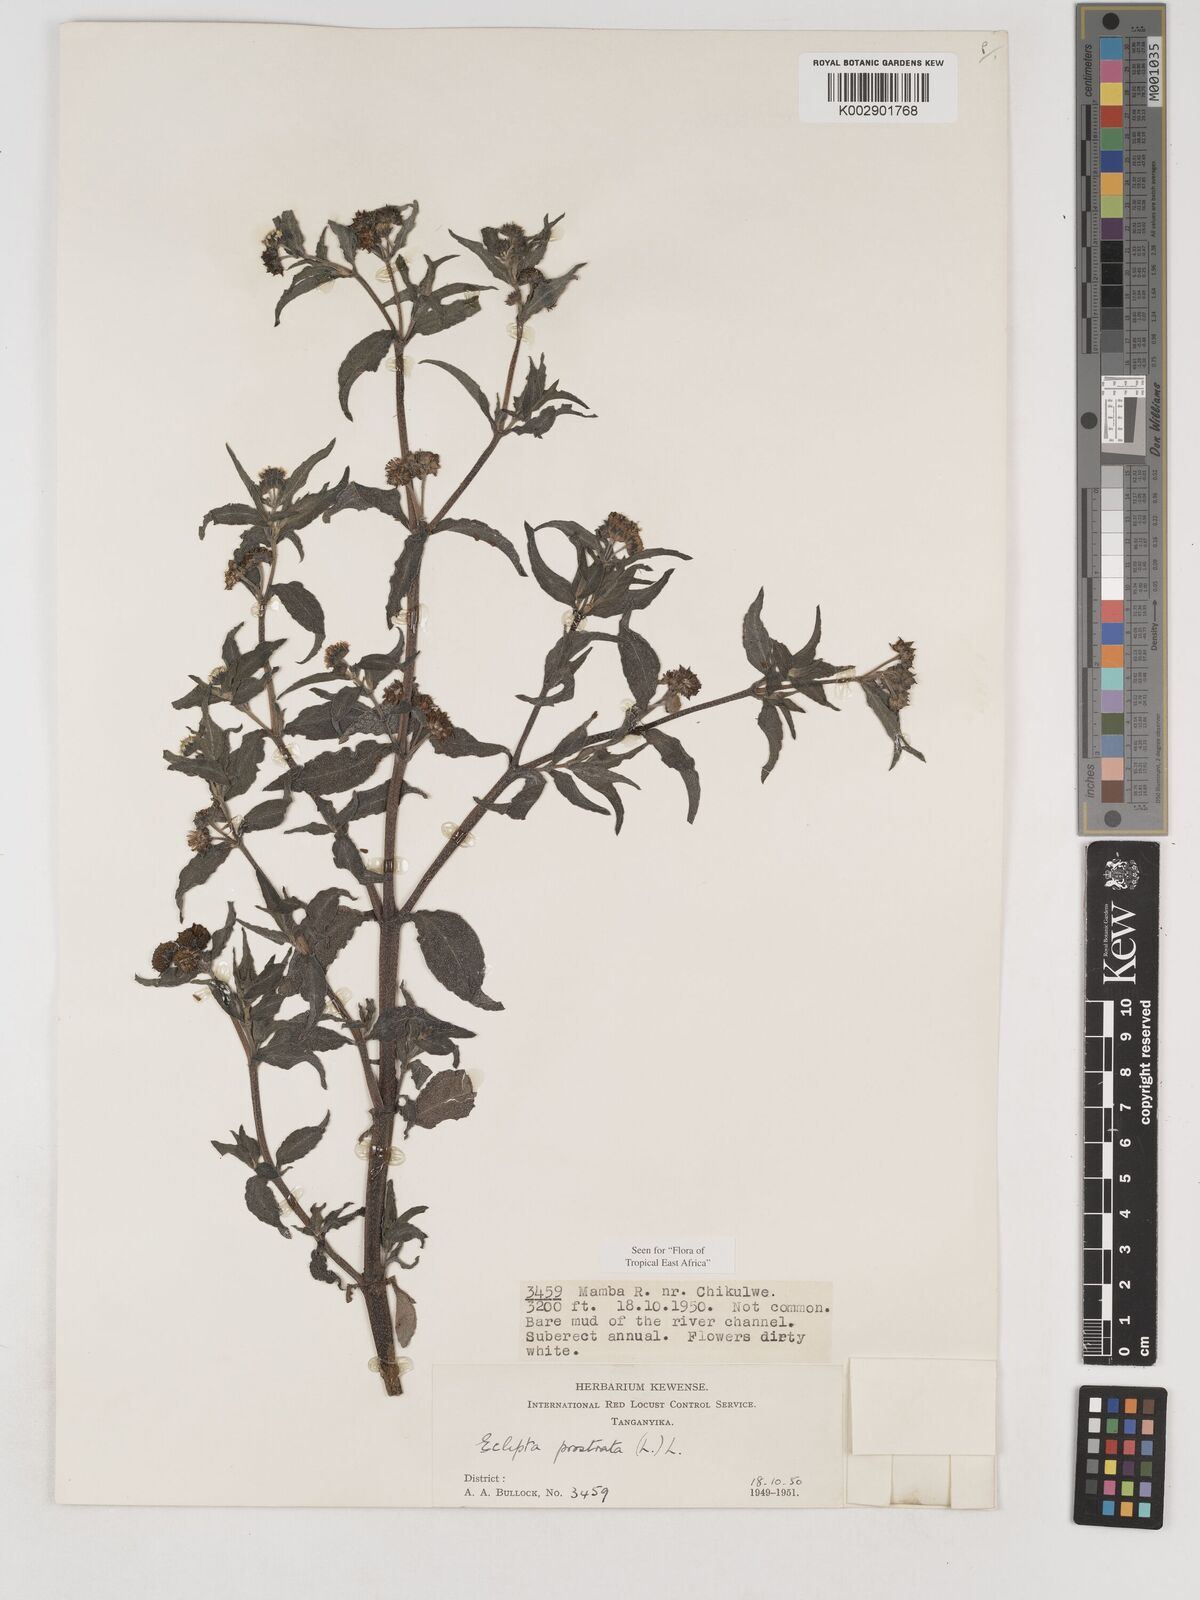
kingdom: Plantae
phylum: Tracheophyta
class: Magnoliopsida
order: Asterales
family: Asteraceae
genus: Eclipta
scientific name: Eclipta alba
